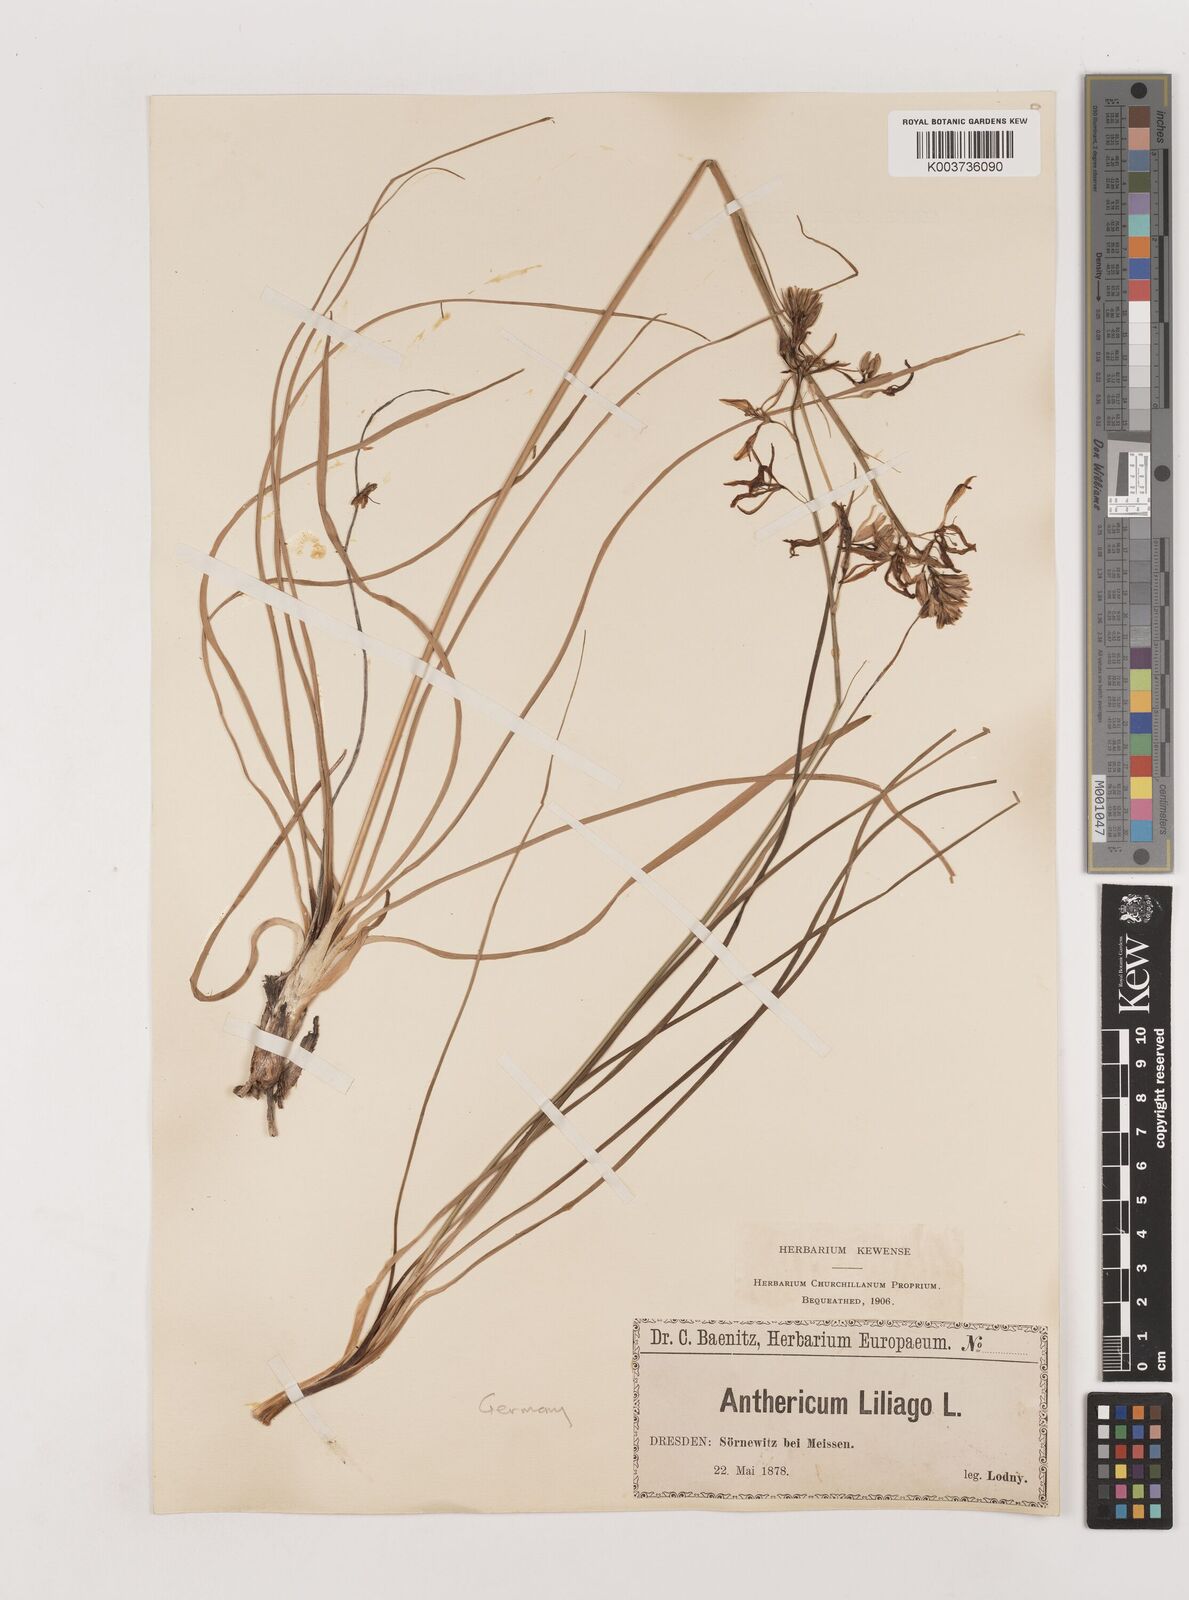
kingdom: Plantae
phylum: Tracheophyta
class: Liliopsida
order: Asparagales
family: Asparagaceae
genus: Anthericum
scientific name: Anthericum liliago
